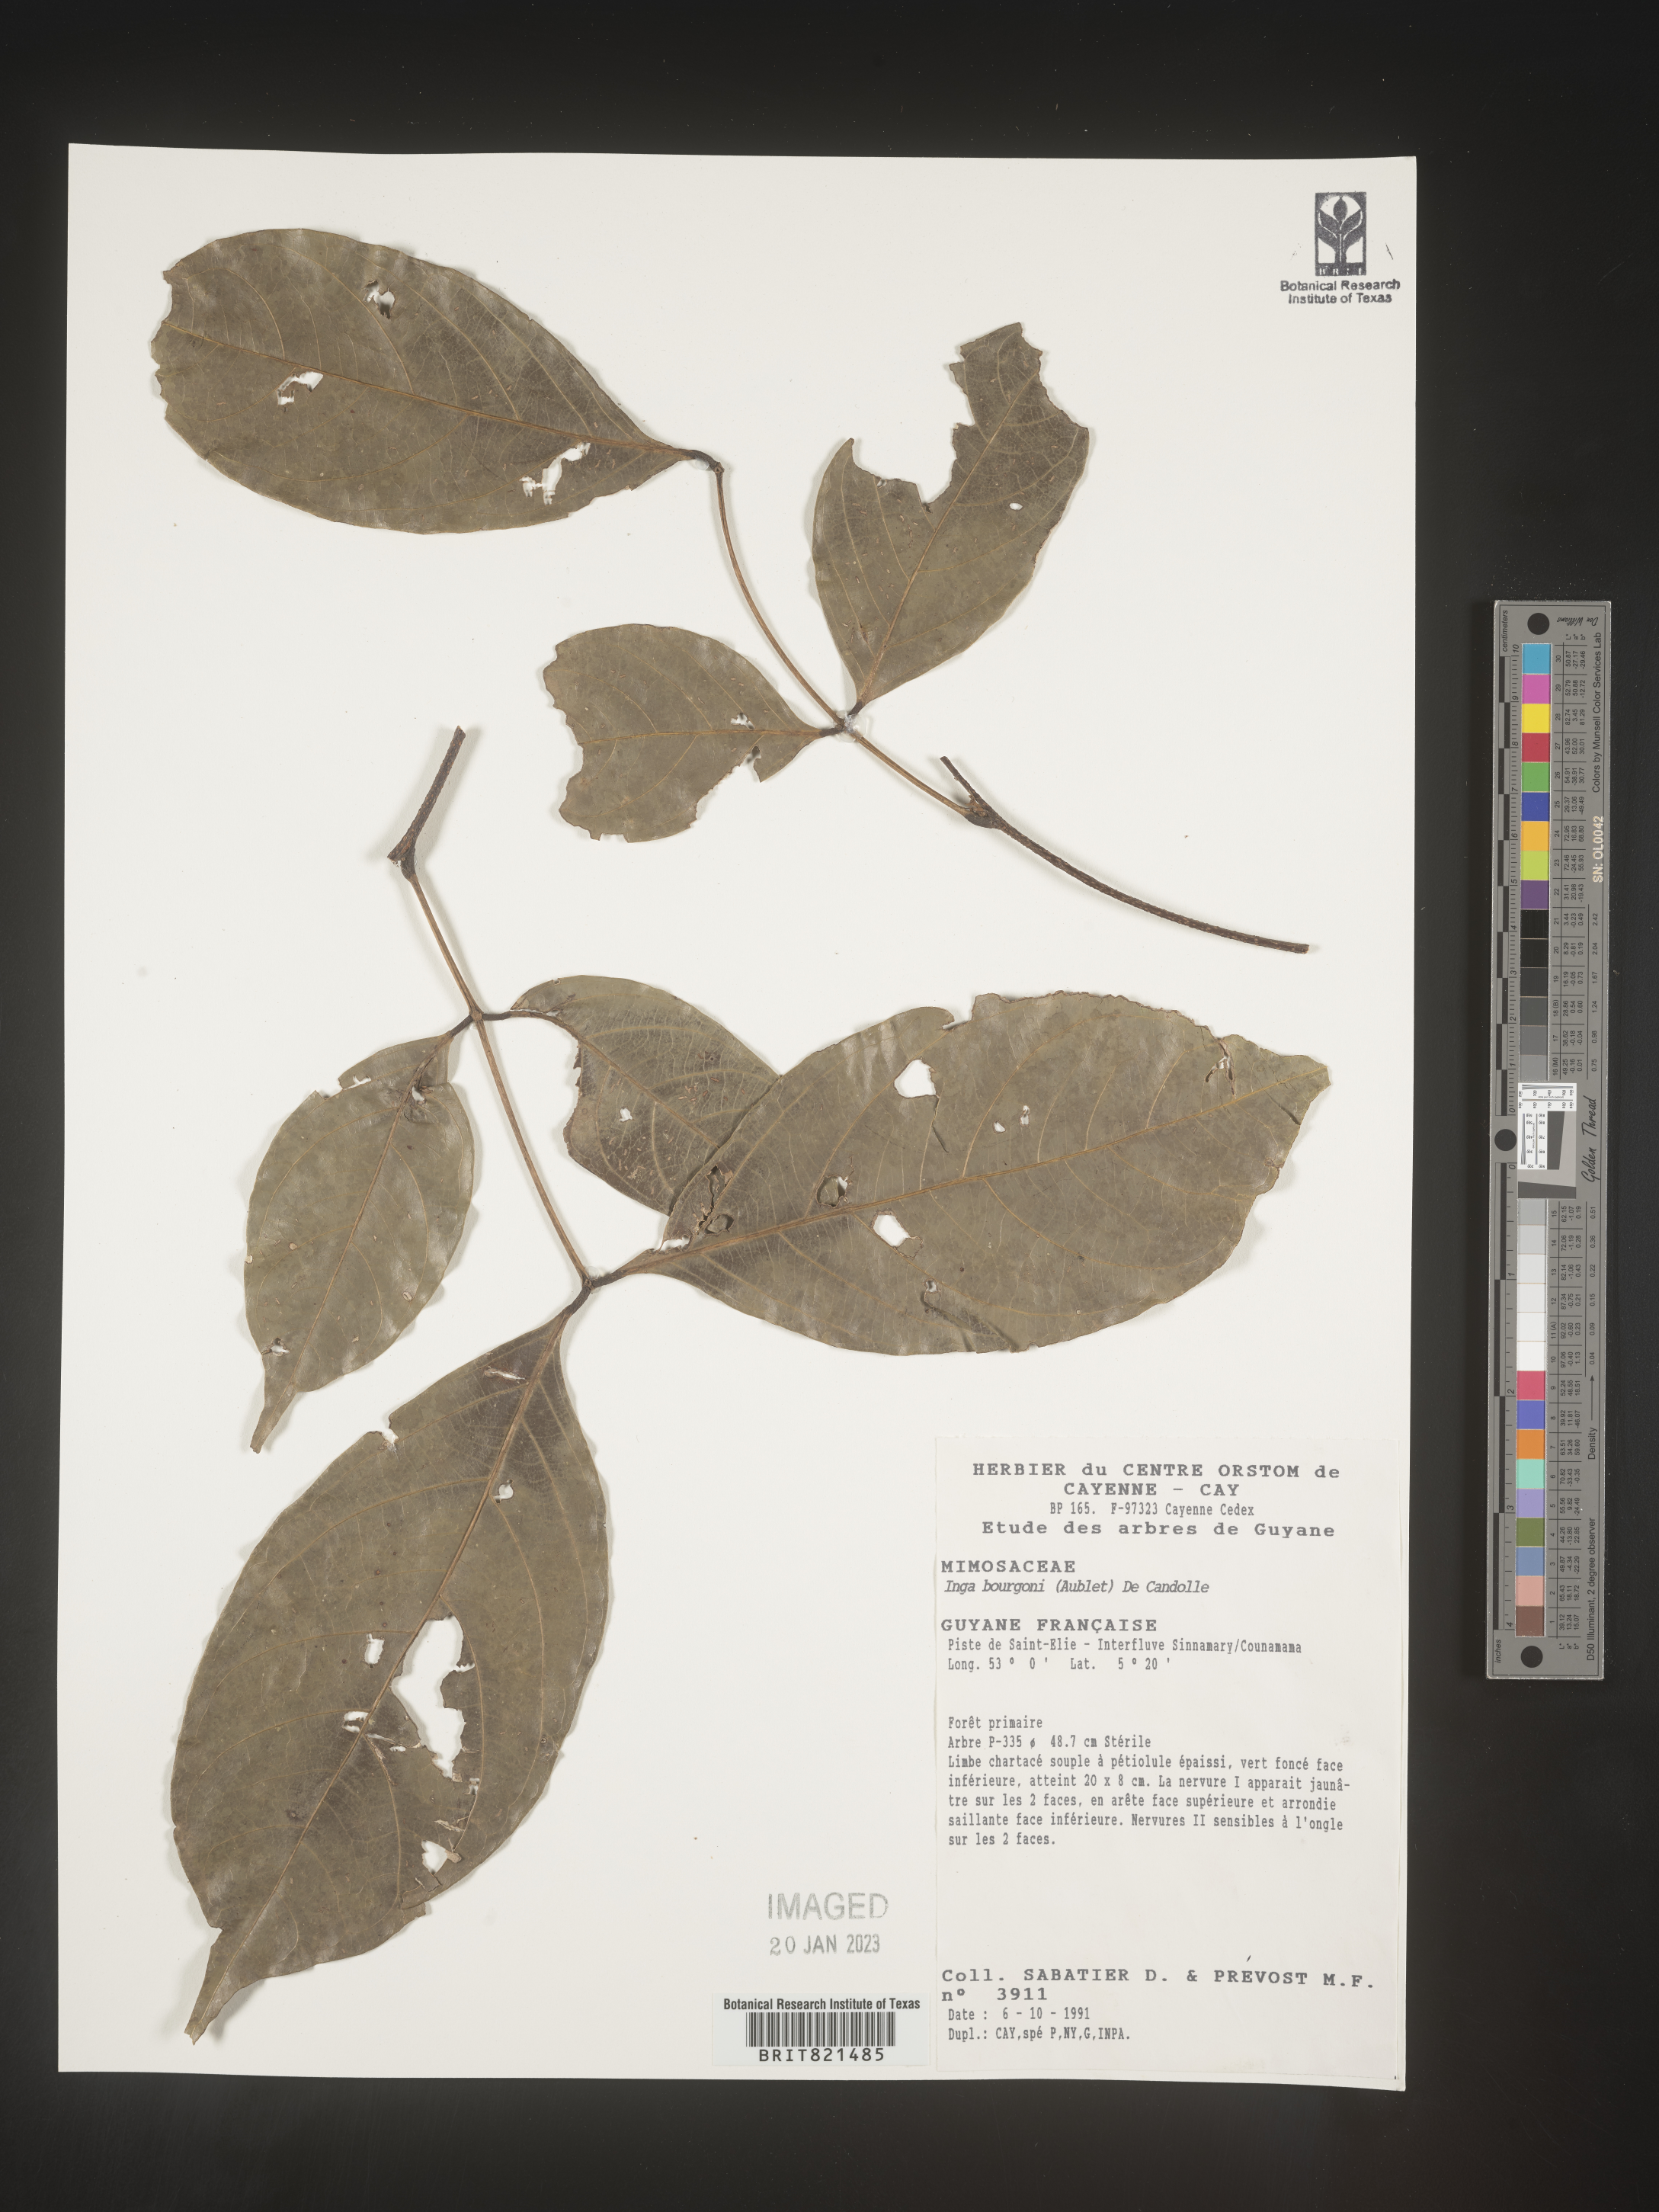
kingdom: Plantae
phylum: Tracheophyta
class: Magnoliopsida
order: Fabales
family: Fabaceae
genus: Inga
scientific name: Inga
